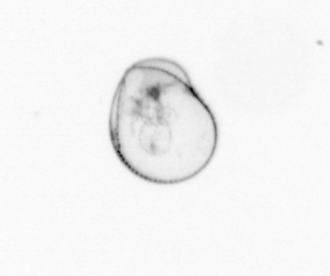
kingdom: Chromista
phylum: Myzozoa
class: Dinophyceae
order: Noctilucales
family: Noctilucaceae
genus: Noctiluca
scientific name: Noctiluca scintillans
